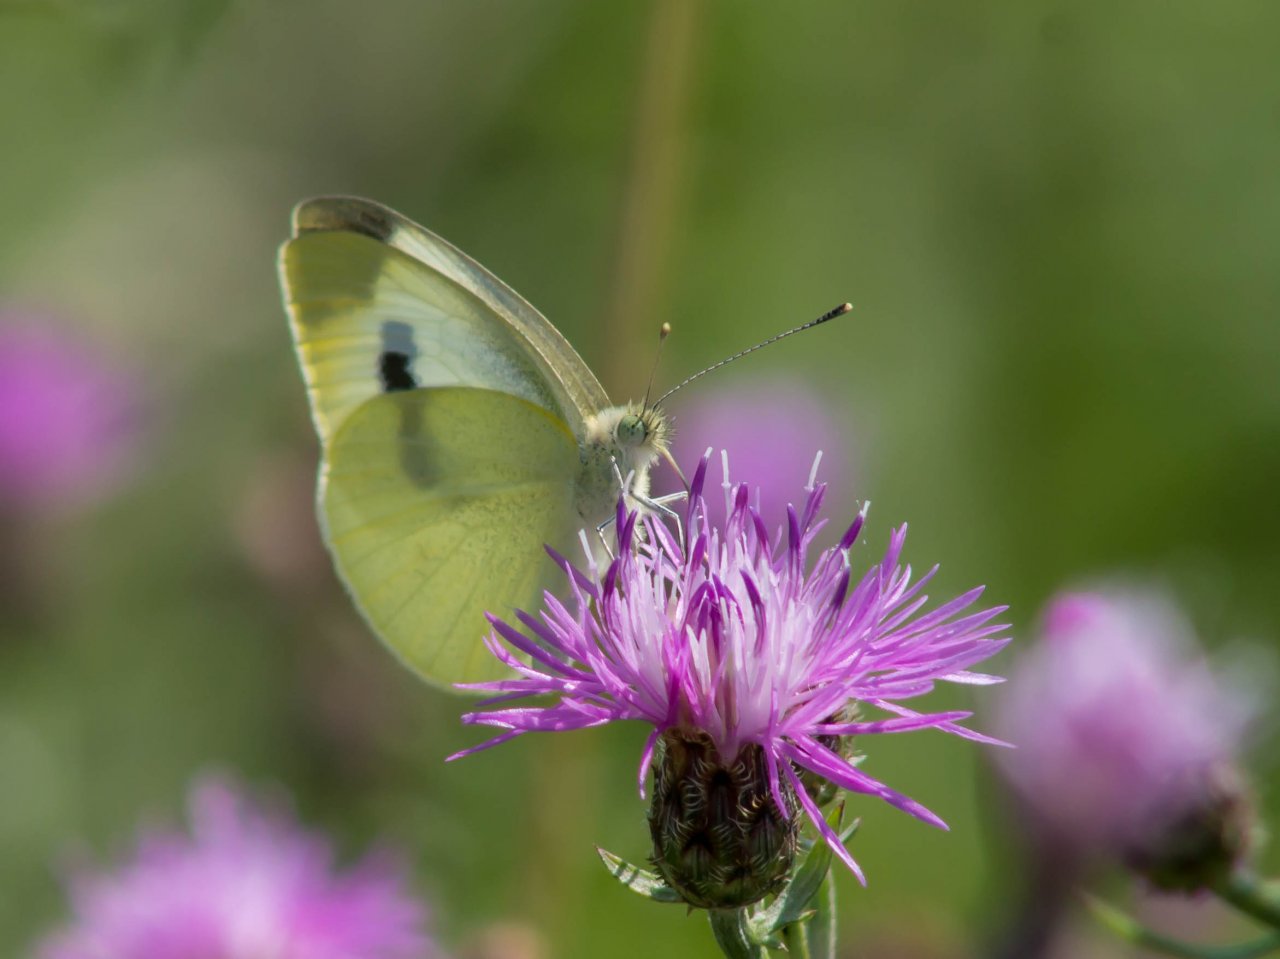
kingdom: Animalia
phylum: Arthropoda
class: Insecta
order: Lepidoptera
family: Pieridae
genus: Pieris
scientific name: Pieris rapae
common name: Cabbage White
